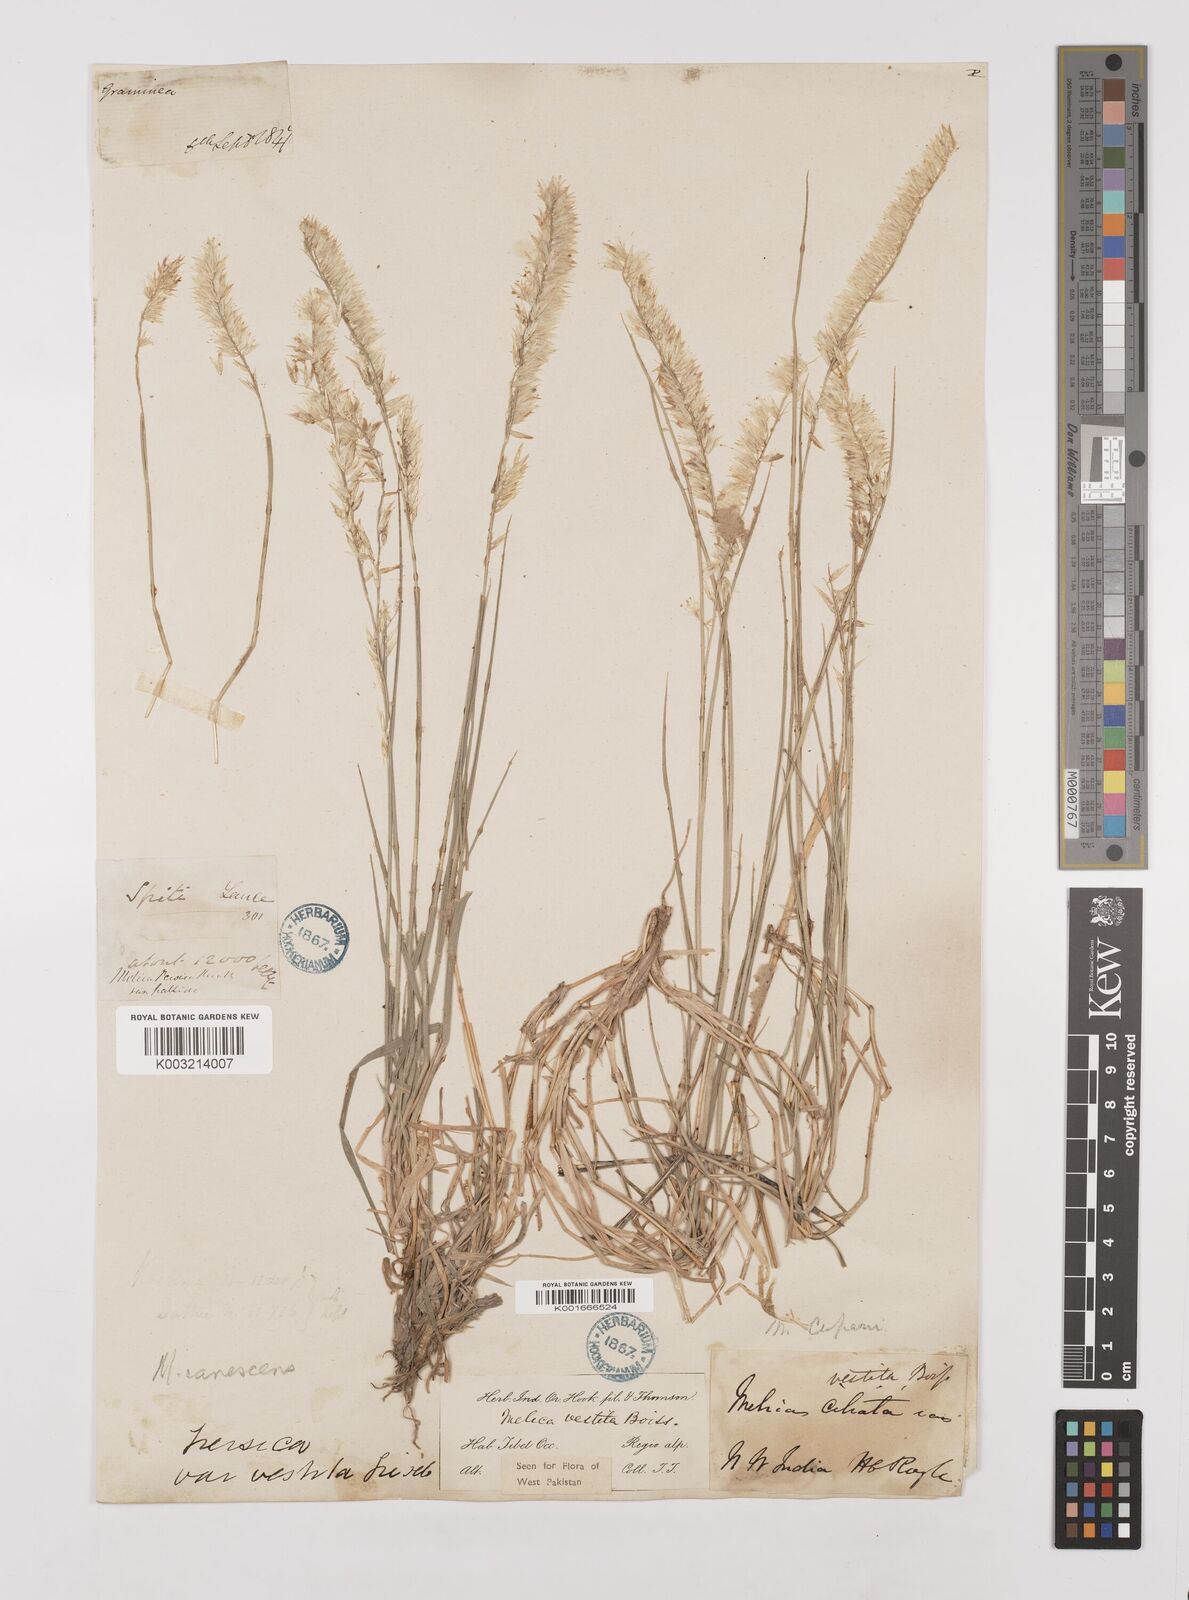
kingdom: Plantae
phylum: Tracheophyta
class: Liliopsida
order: Poales
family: Poaceae
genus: Melica
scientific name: Melica persica
